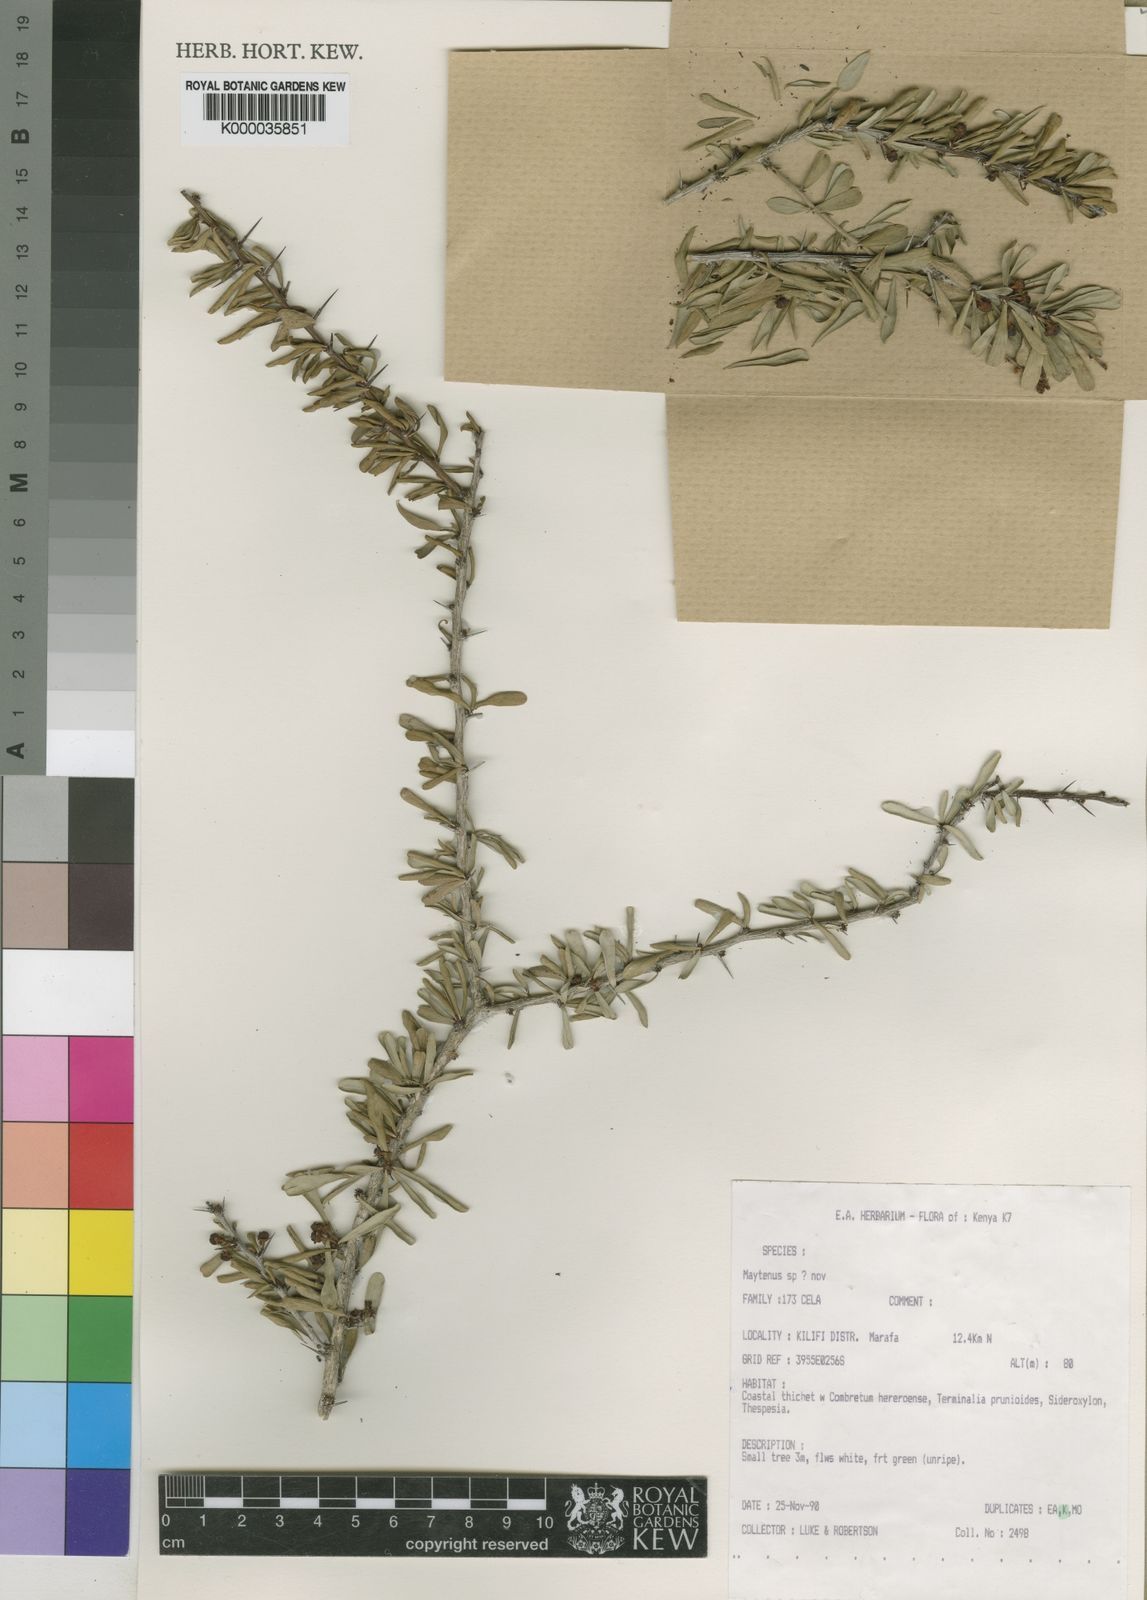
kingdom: Plantae
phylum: Tracheophyta
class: Magnoliopsida
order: Celastrales
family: Celastraceae
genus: Gymnosporia
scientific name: Gymnosporia masindei
